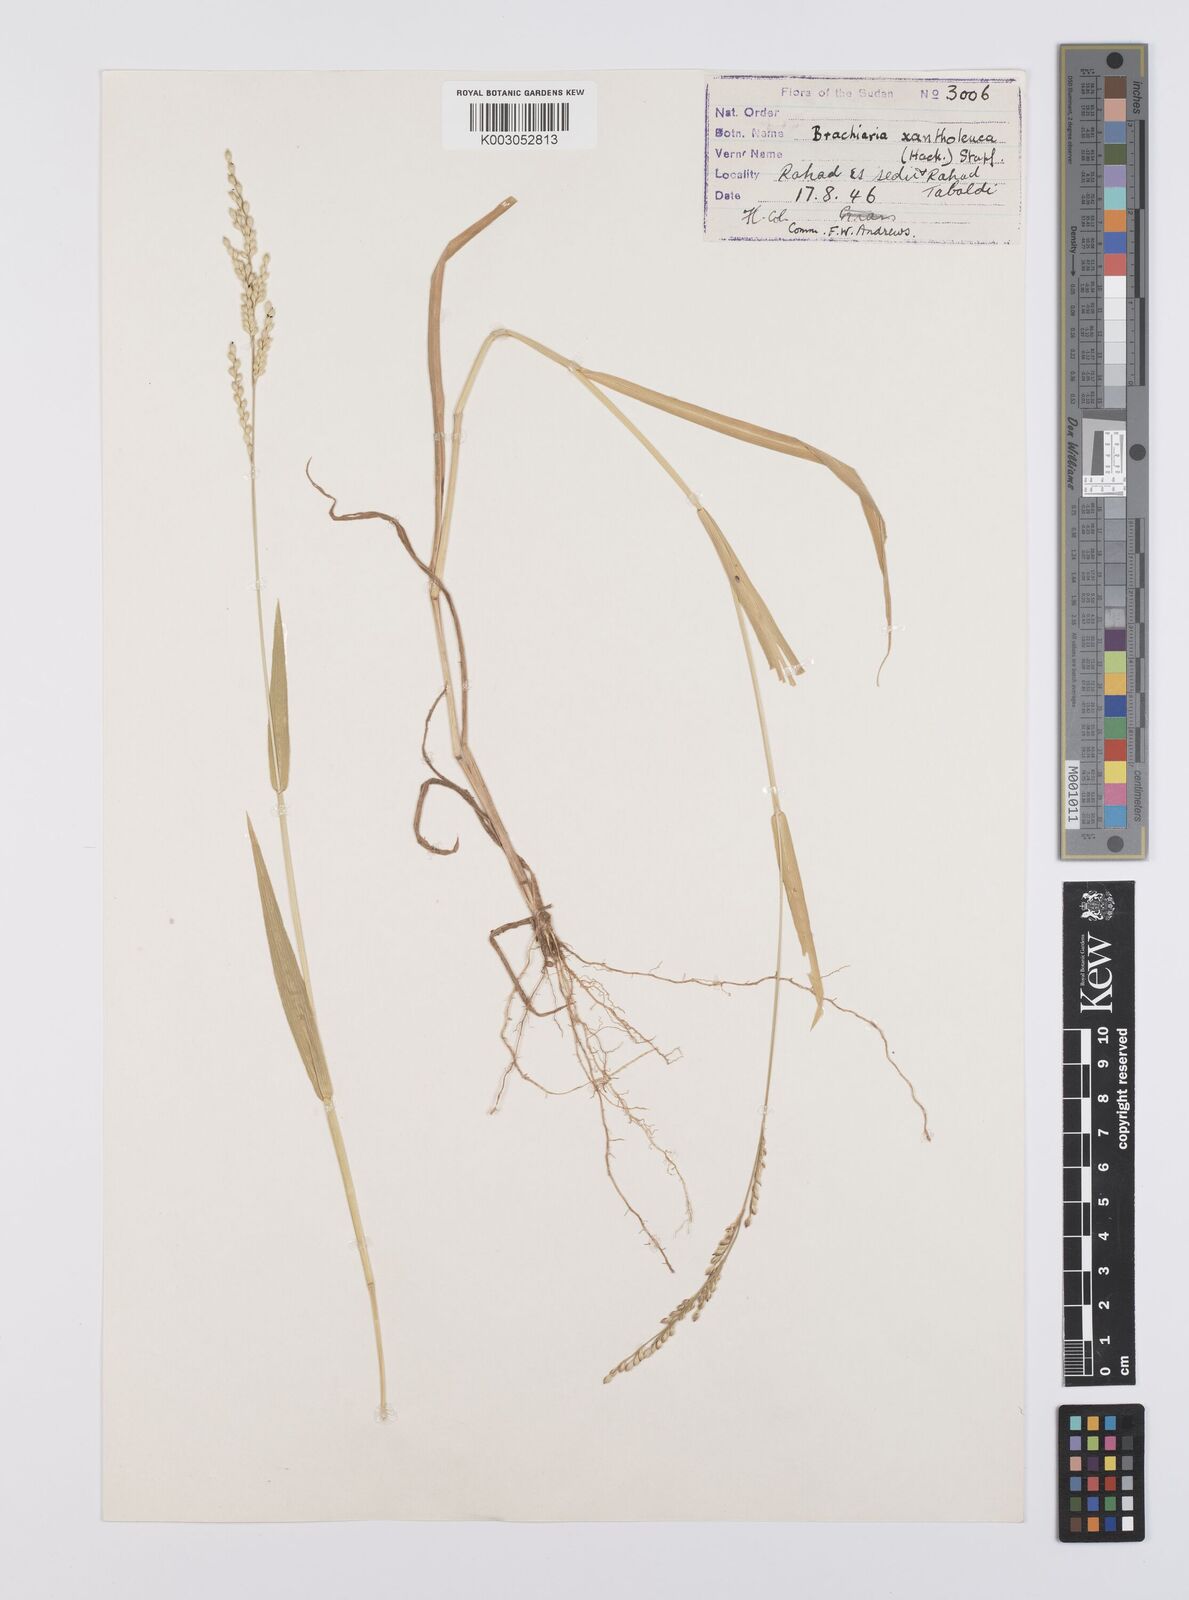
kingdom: Plantae
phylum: Tracheophyta
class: Liliopsida
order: Poales
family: Poaceae
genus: Urochloa
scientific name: Urochloa xantholeuca
